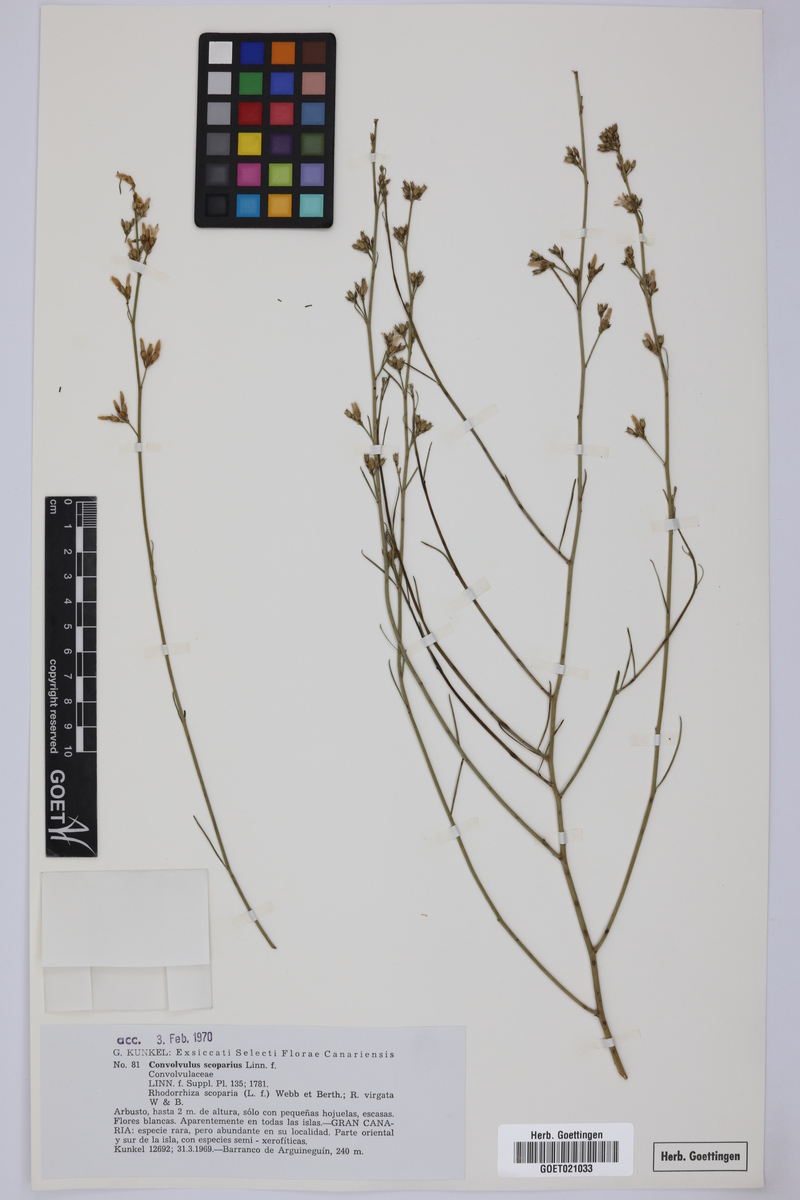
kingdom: Plantae
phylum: Tracheophyta
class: Magnoliopsida
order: Solanales
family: Convolvulaceae
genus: Convolvulus
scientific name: Convolvulus scoparius
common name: Lignum rhodium
